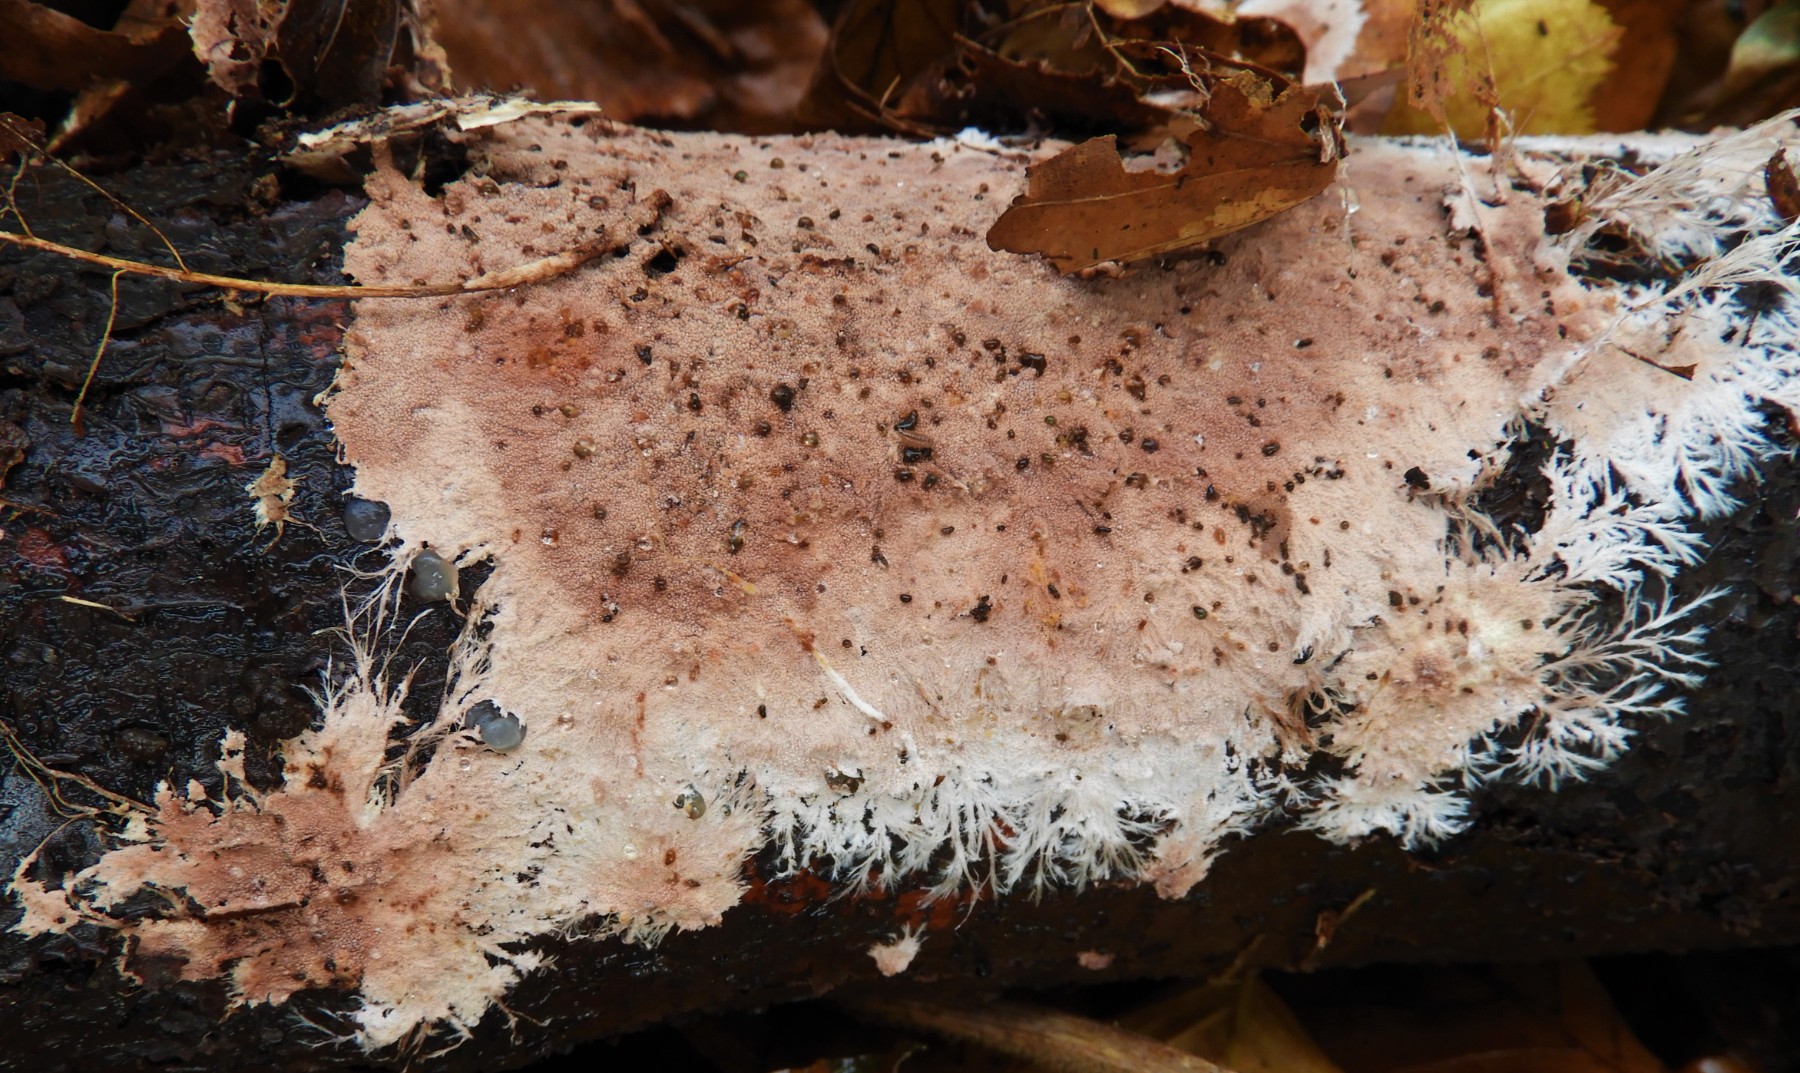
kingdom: Fungi
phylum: Basidiomycota
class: Agaricomycetes
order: Polyporales
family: Steccherinaceae
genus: Steccherinum
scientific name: Steccherinum fimbriatum
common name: trådet skønpig
